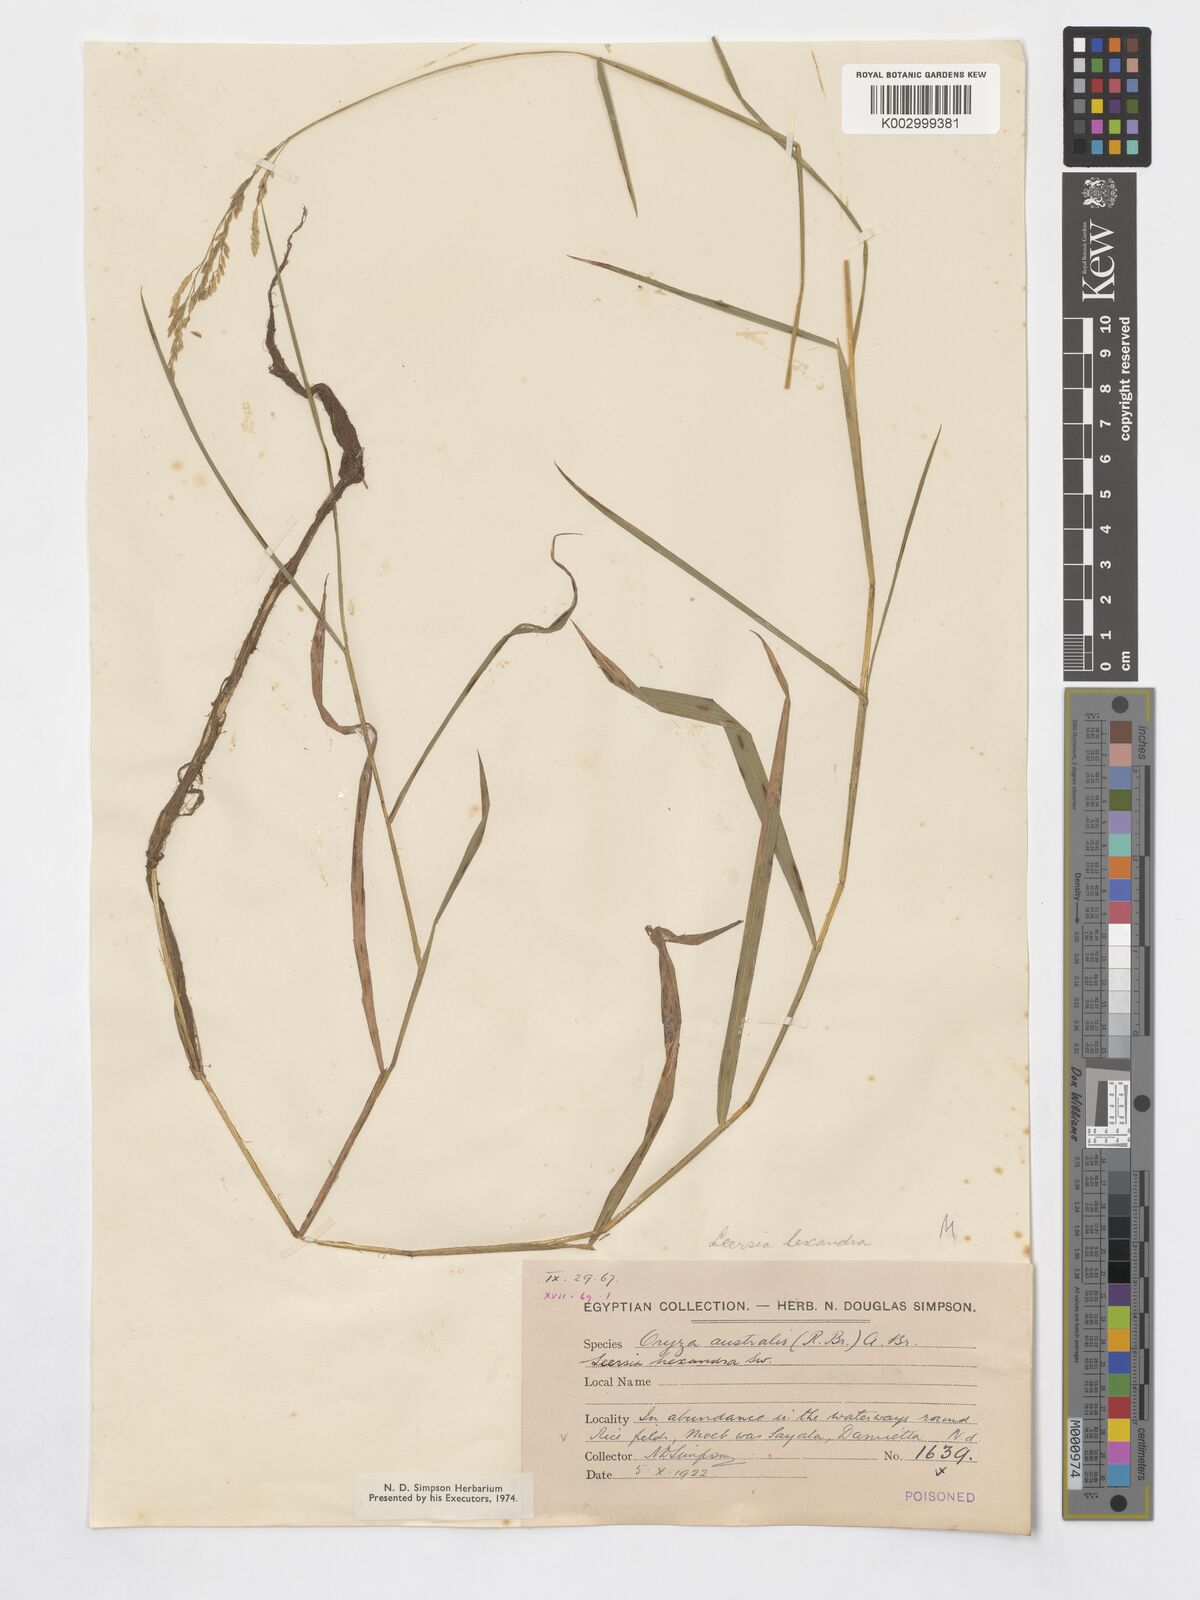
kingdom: Plantae
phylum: Tracheophyta
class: Liliopsida
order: Poales
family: Poaceae
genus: Leersia
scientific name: Leersia hexandra
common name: Southern cut grass
